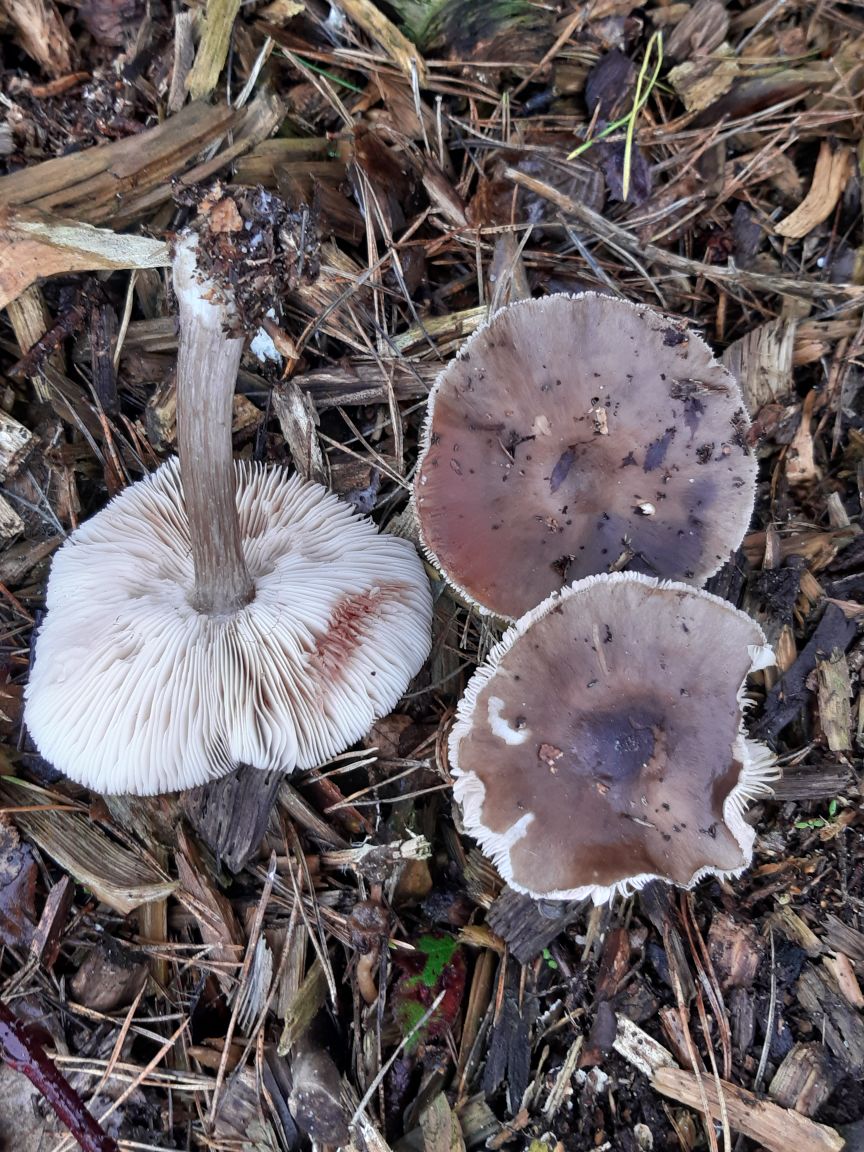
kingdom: Fungi
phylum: Basidiomycota
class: Agaricomycetes
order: Agaricales
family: Pluteaceae
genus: Pluteus
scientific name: Pluteus cervinus
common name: sodfarvet skærmhat
